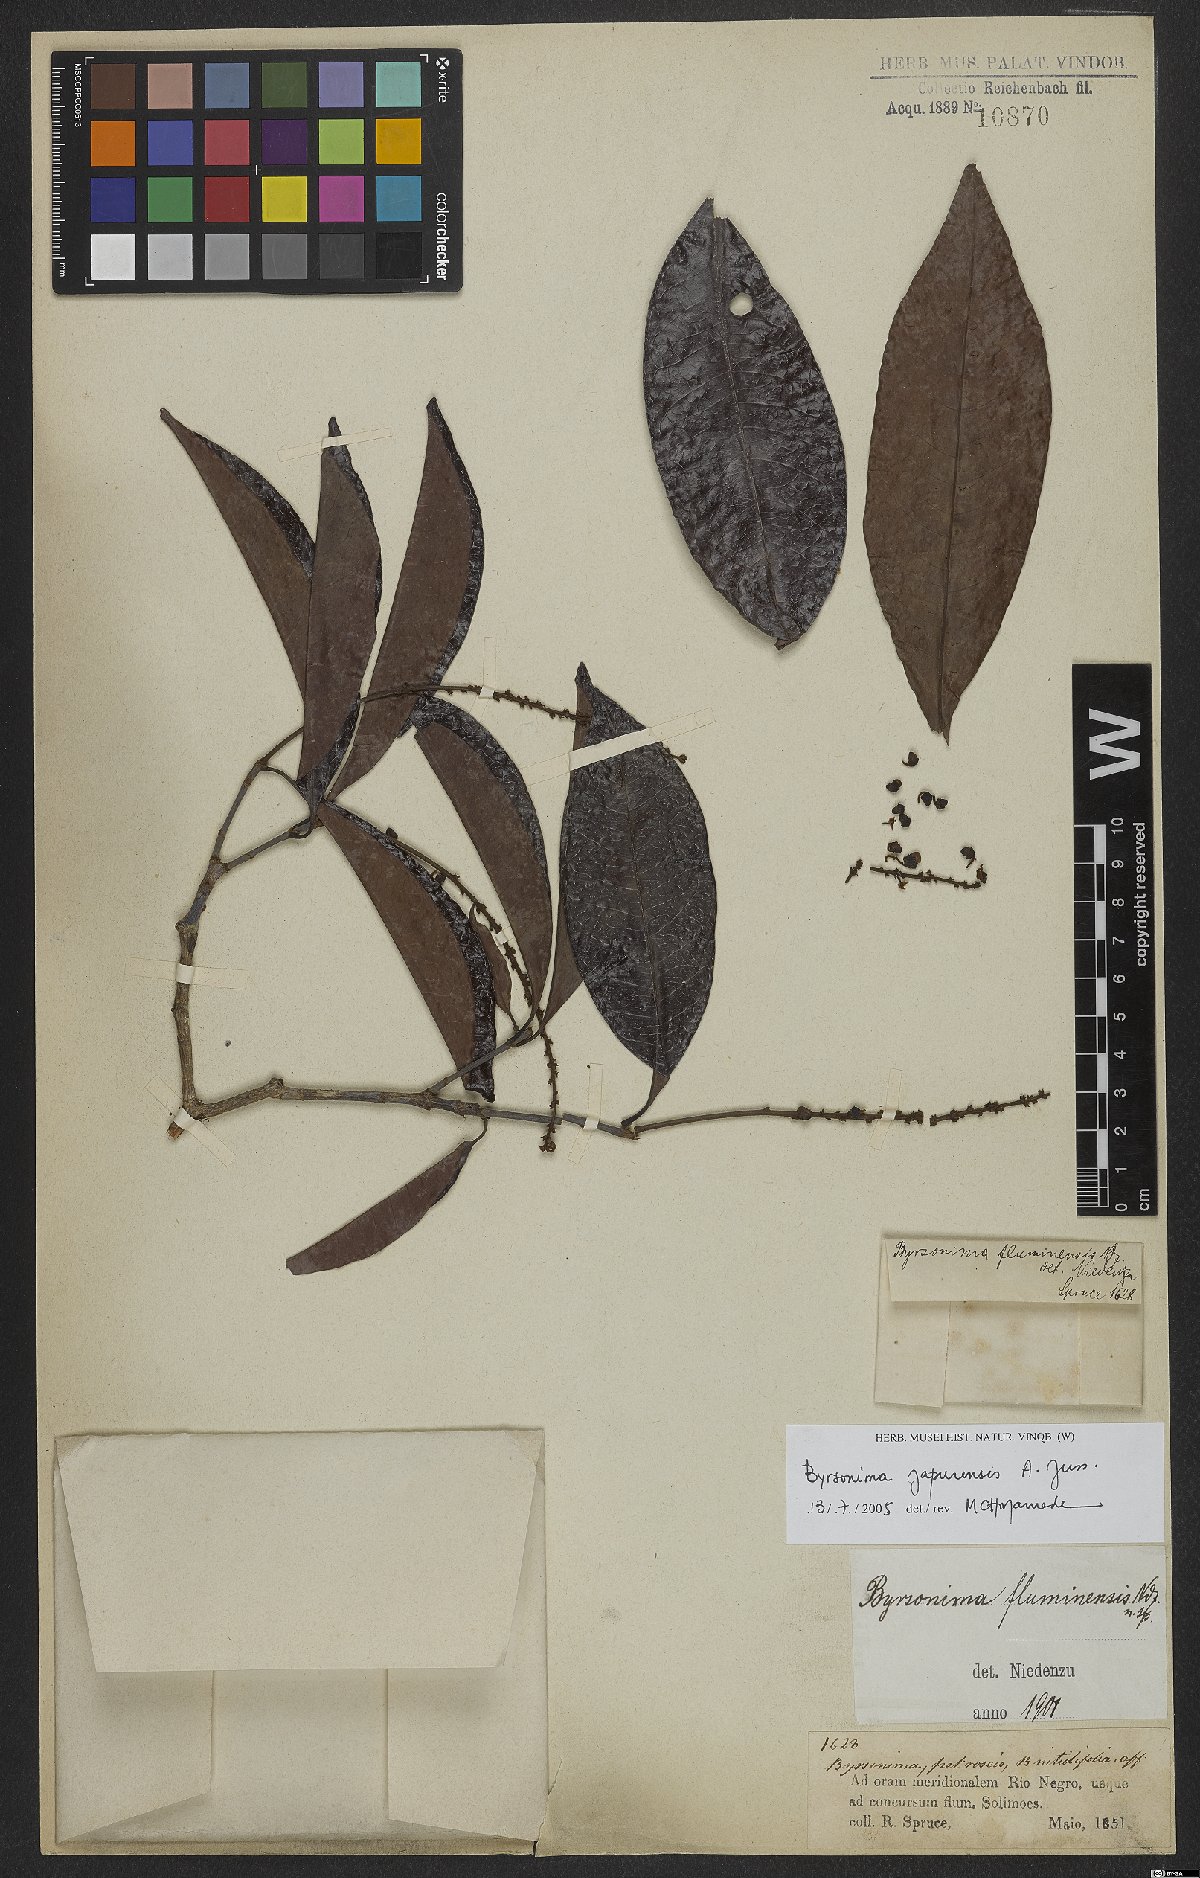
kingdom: Plantae
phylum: Tracheophyta
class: Magnoliopsida
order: Malpighiales
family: Malpighiaceae
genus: Byrsonima
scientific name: Byrsonima japurensis
